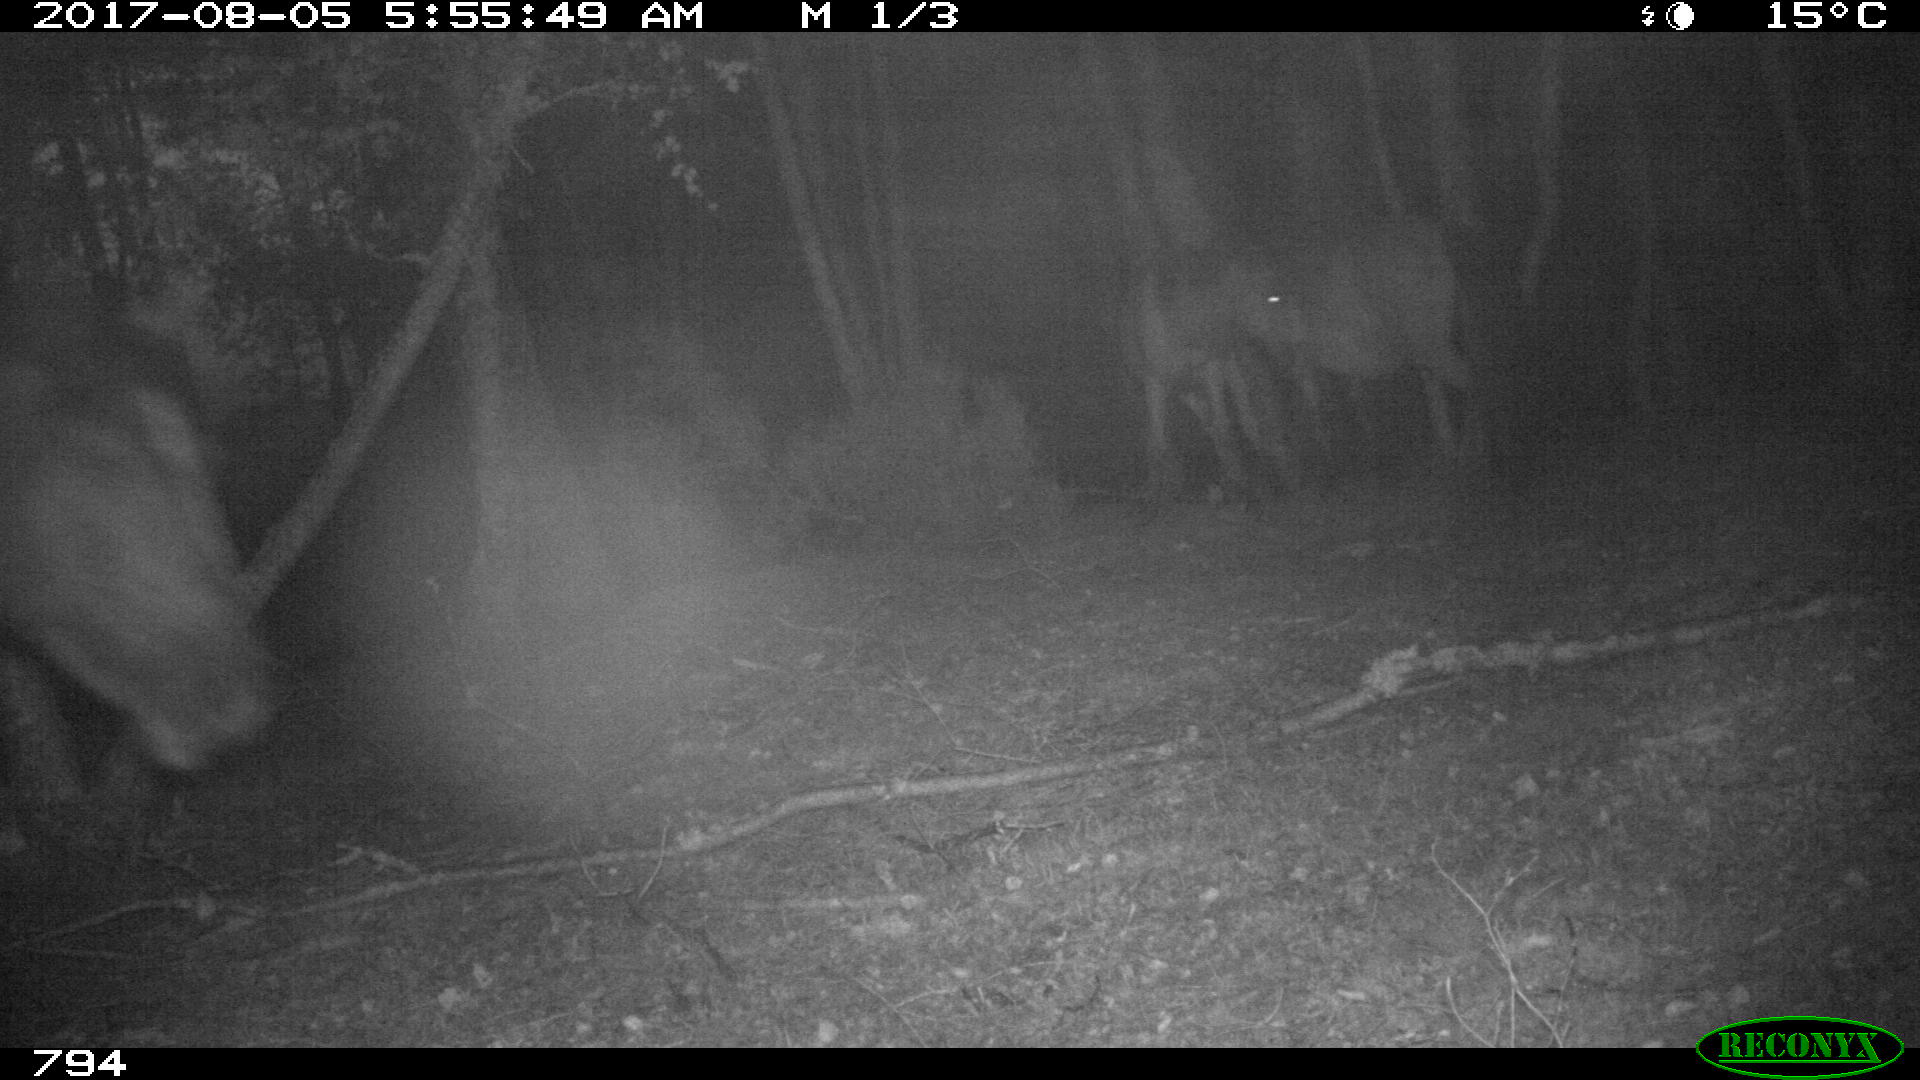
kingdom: Animalia
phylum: Chordata
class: Mammalia
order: Perissodactyla
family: Equidae
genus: Equus
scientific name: Equus caballus
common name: Horse
